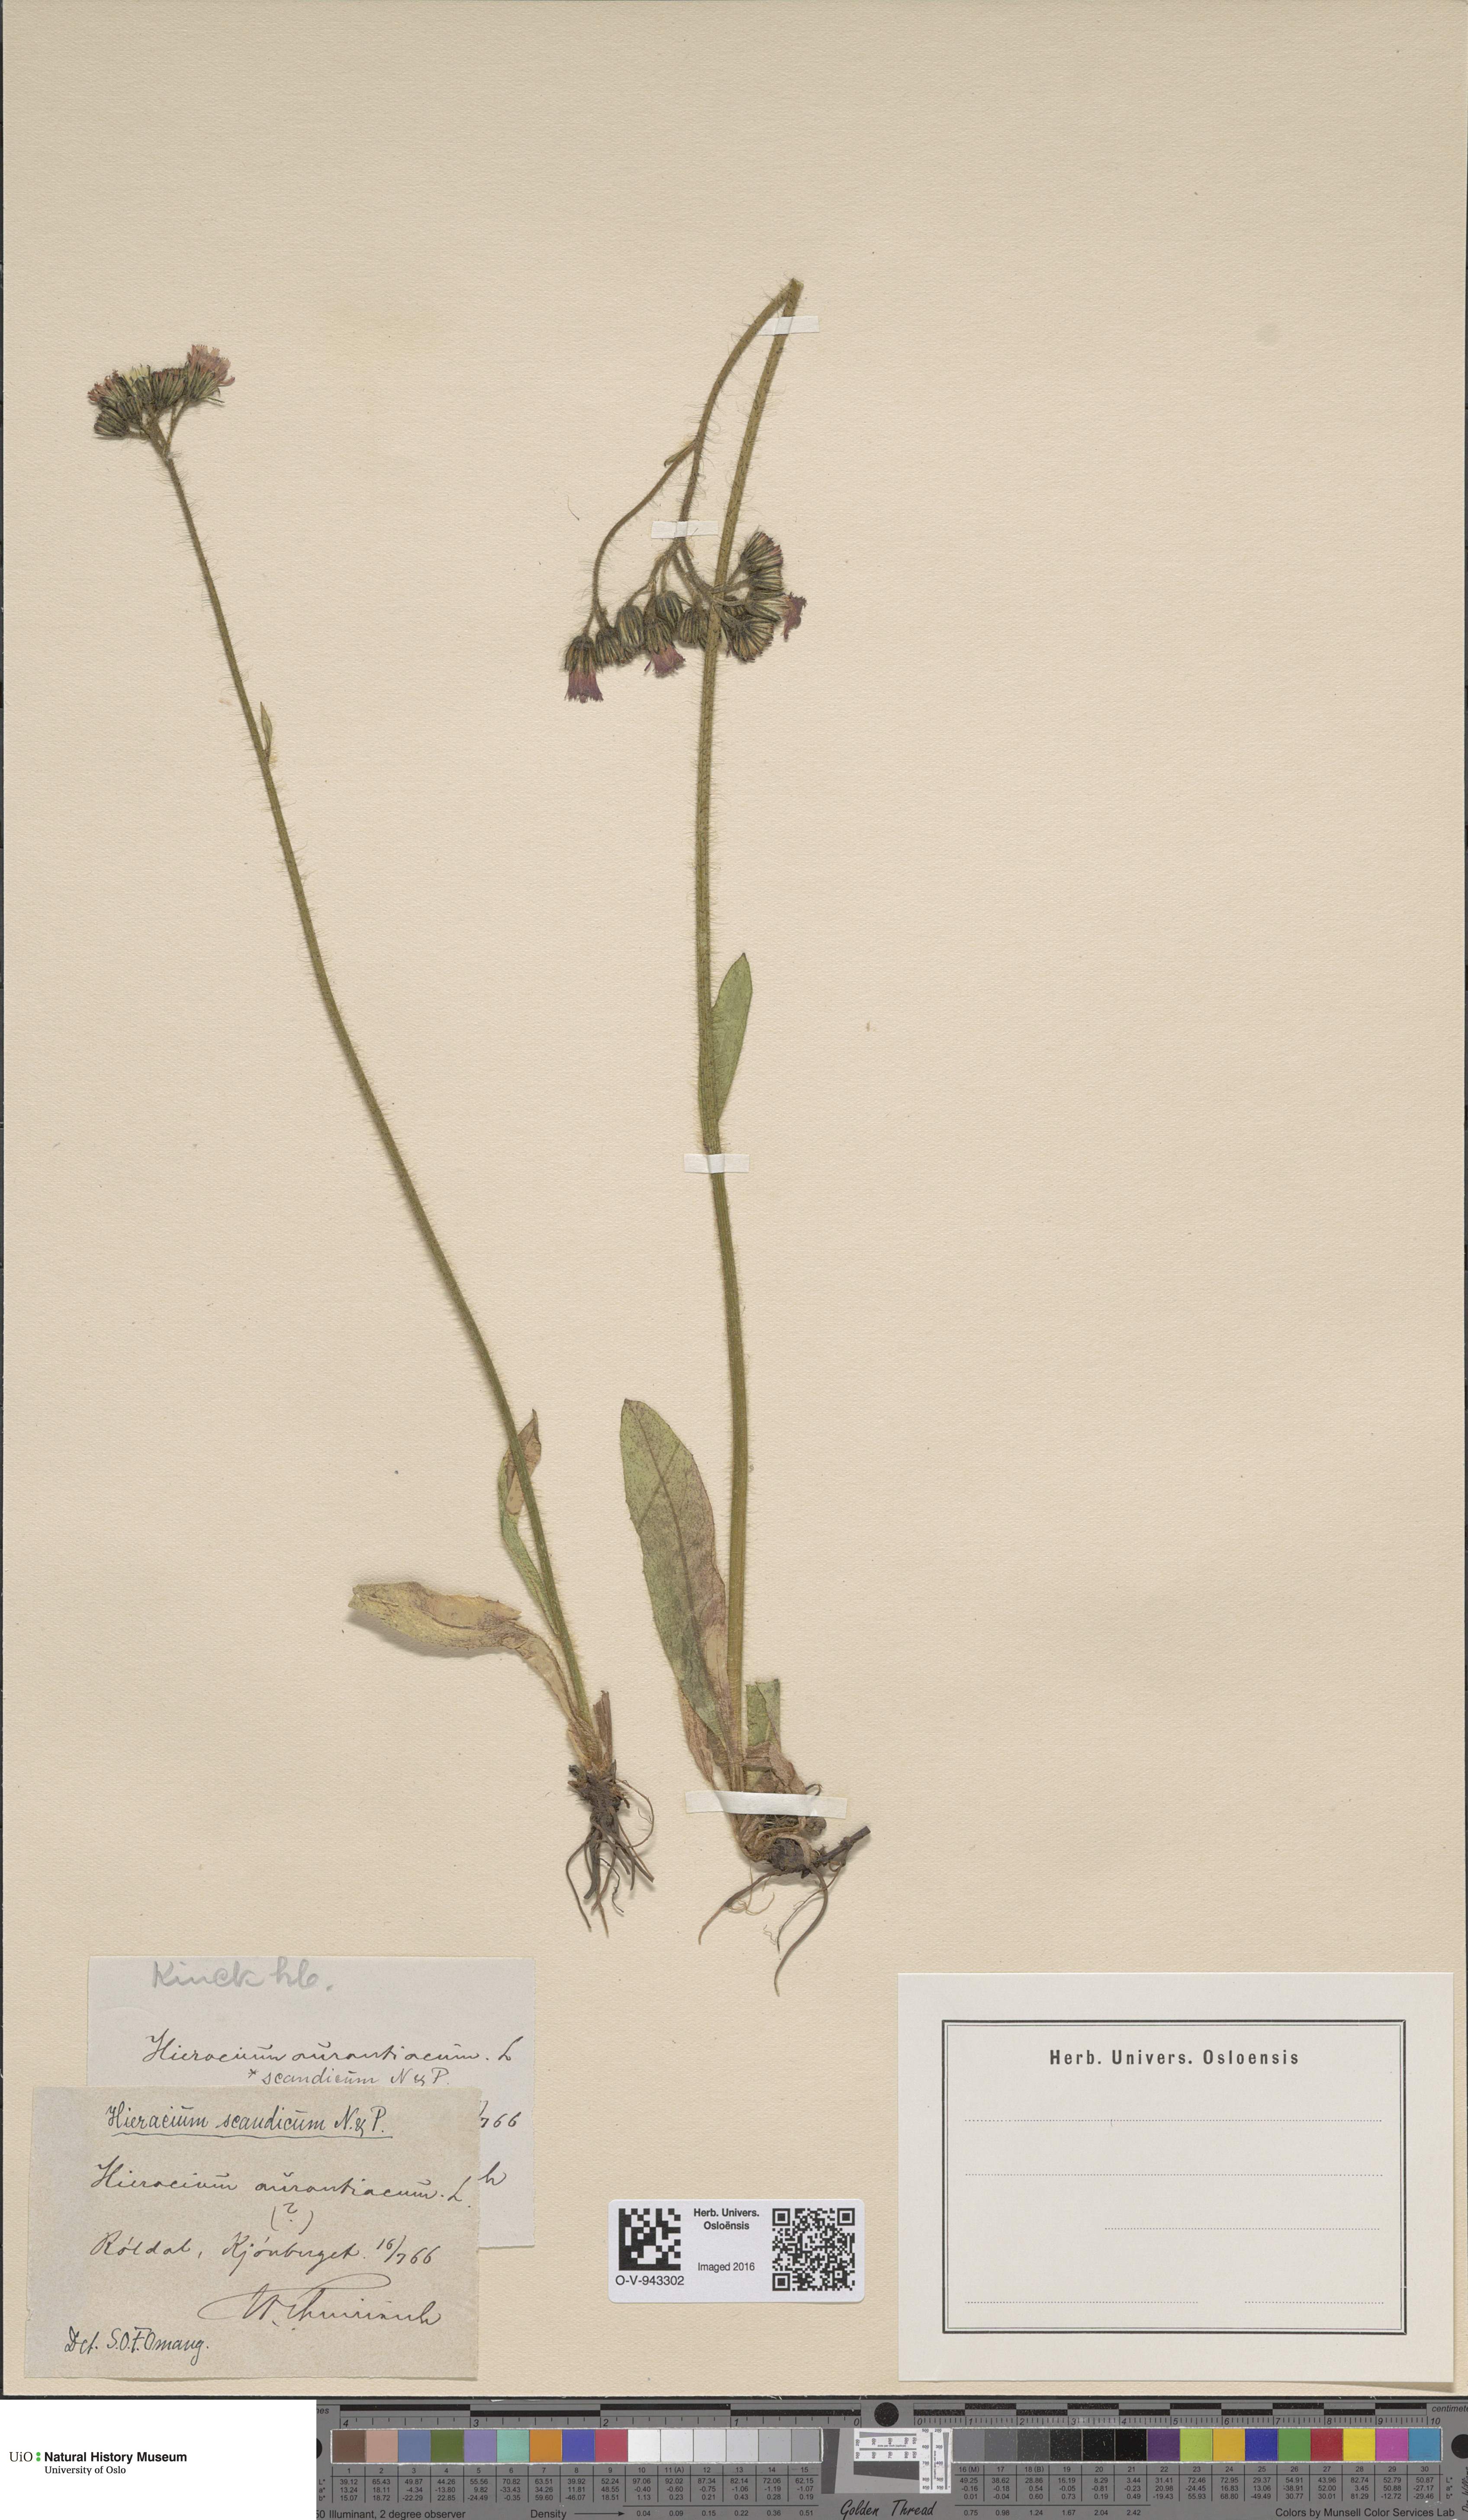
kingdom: Plantae
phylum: Tracheophyta
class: Magnoliopsida
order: Asterales
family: Asteraceae
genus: Pilosella
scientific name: Pilosella aurantiaca
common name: Fox-and-cubs
